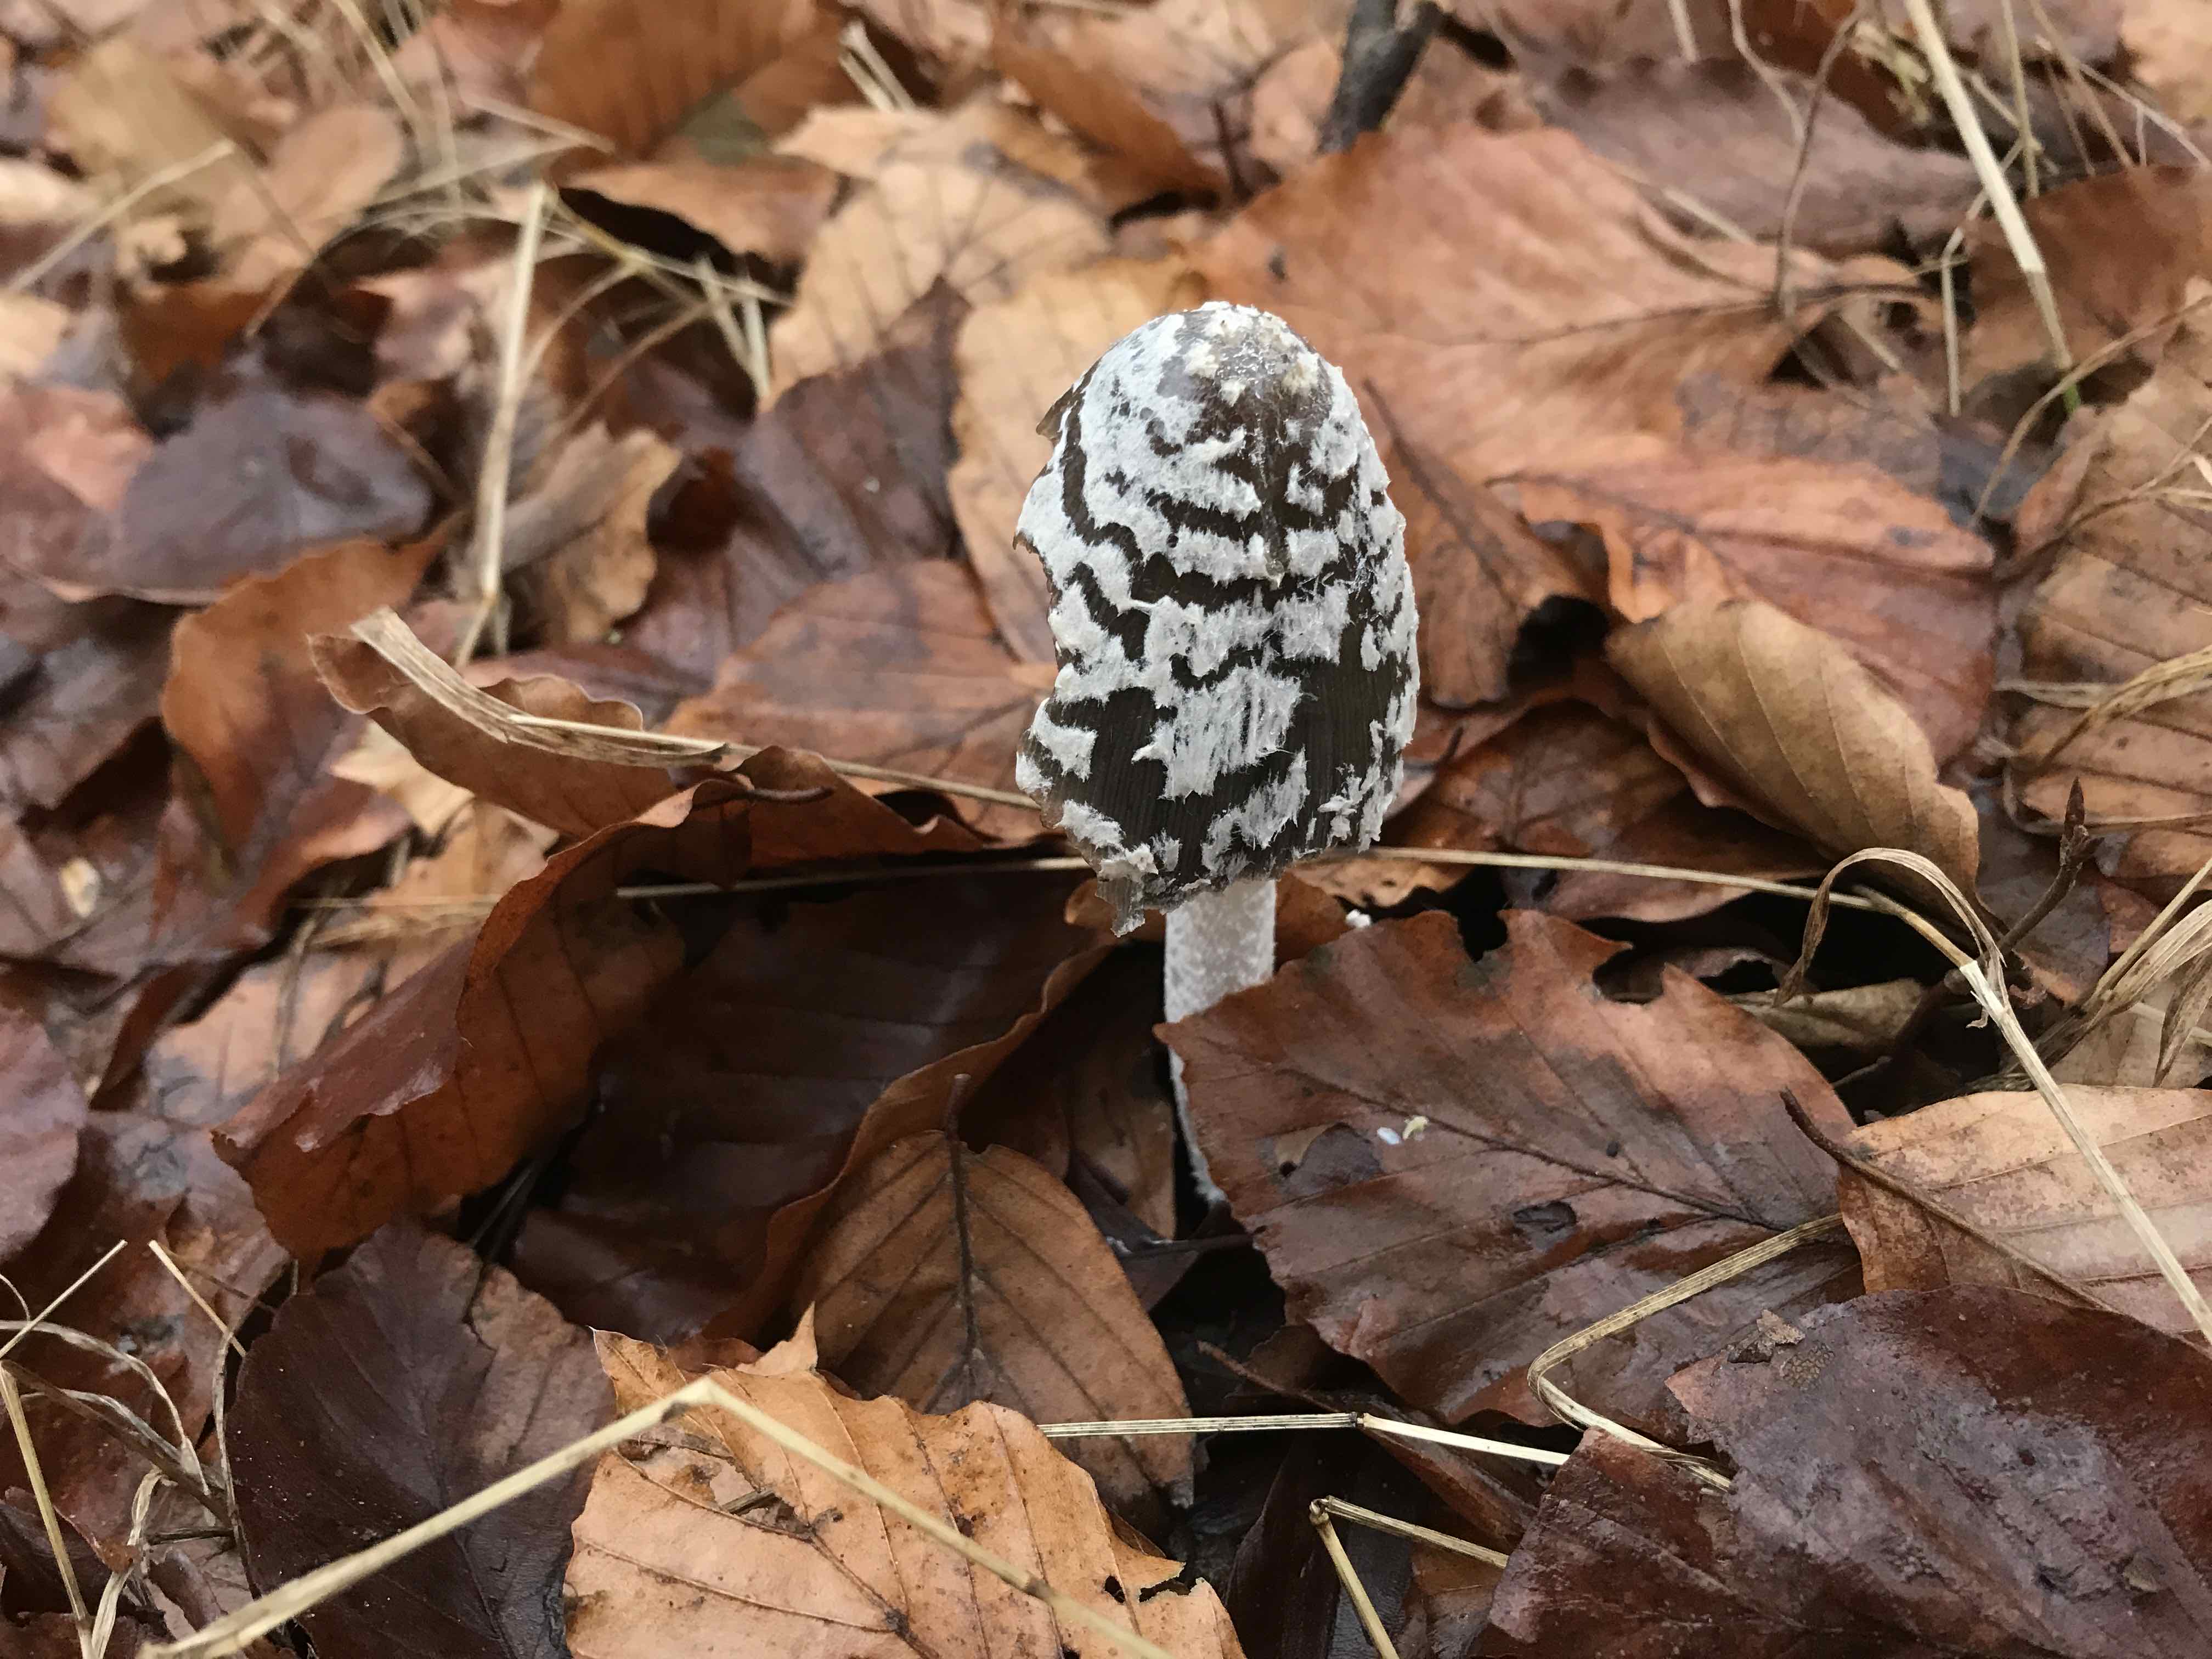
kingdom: Fungi
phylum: Basidiomycota
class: Agaricomycetes
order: Agaricales
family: Psathyrellaceae
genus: Coprinopsis
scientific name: Coprinopsis picacea
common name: skade-blækhat
